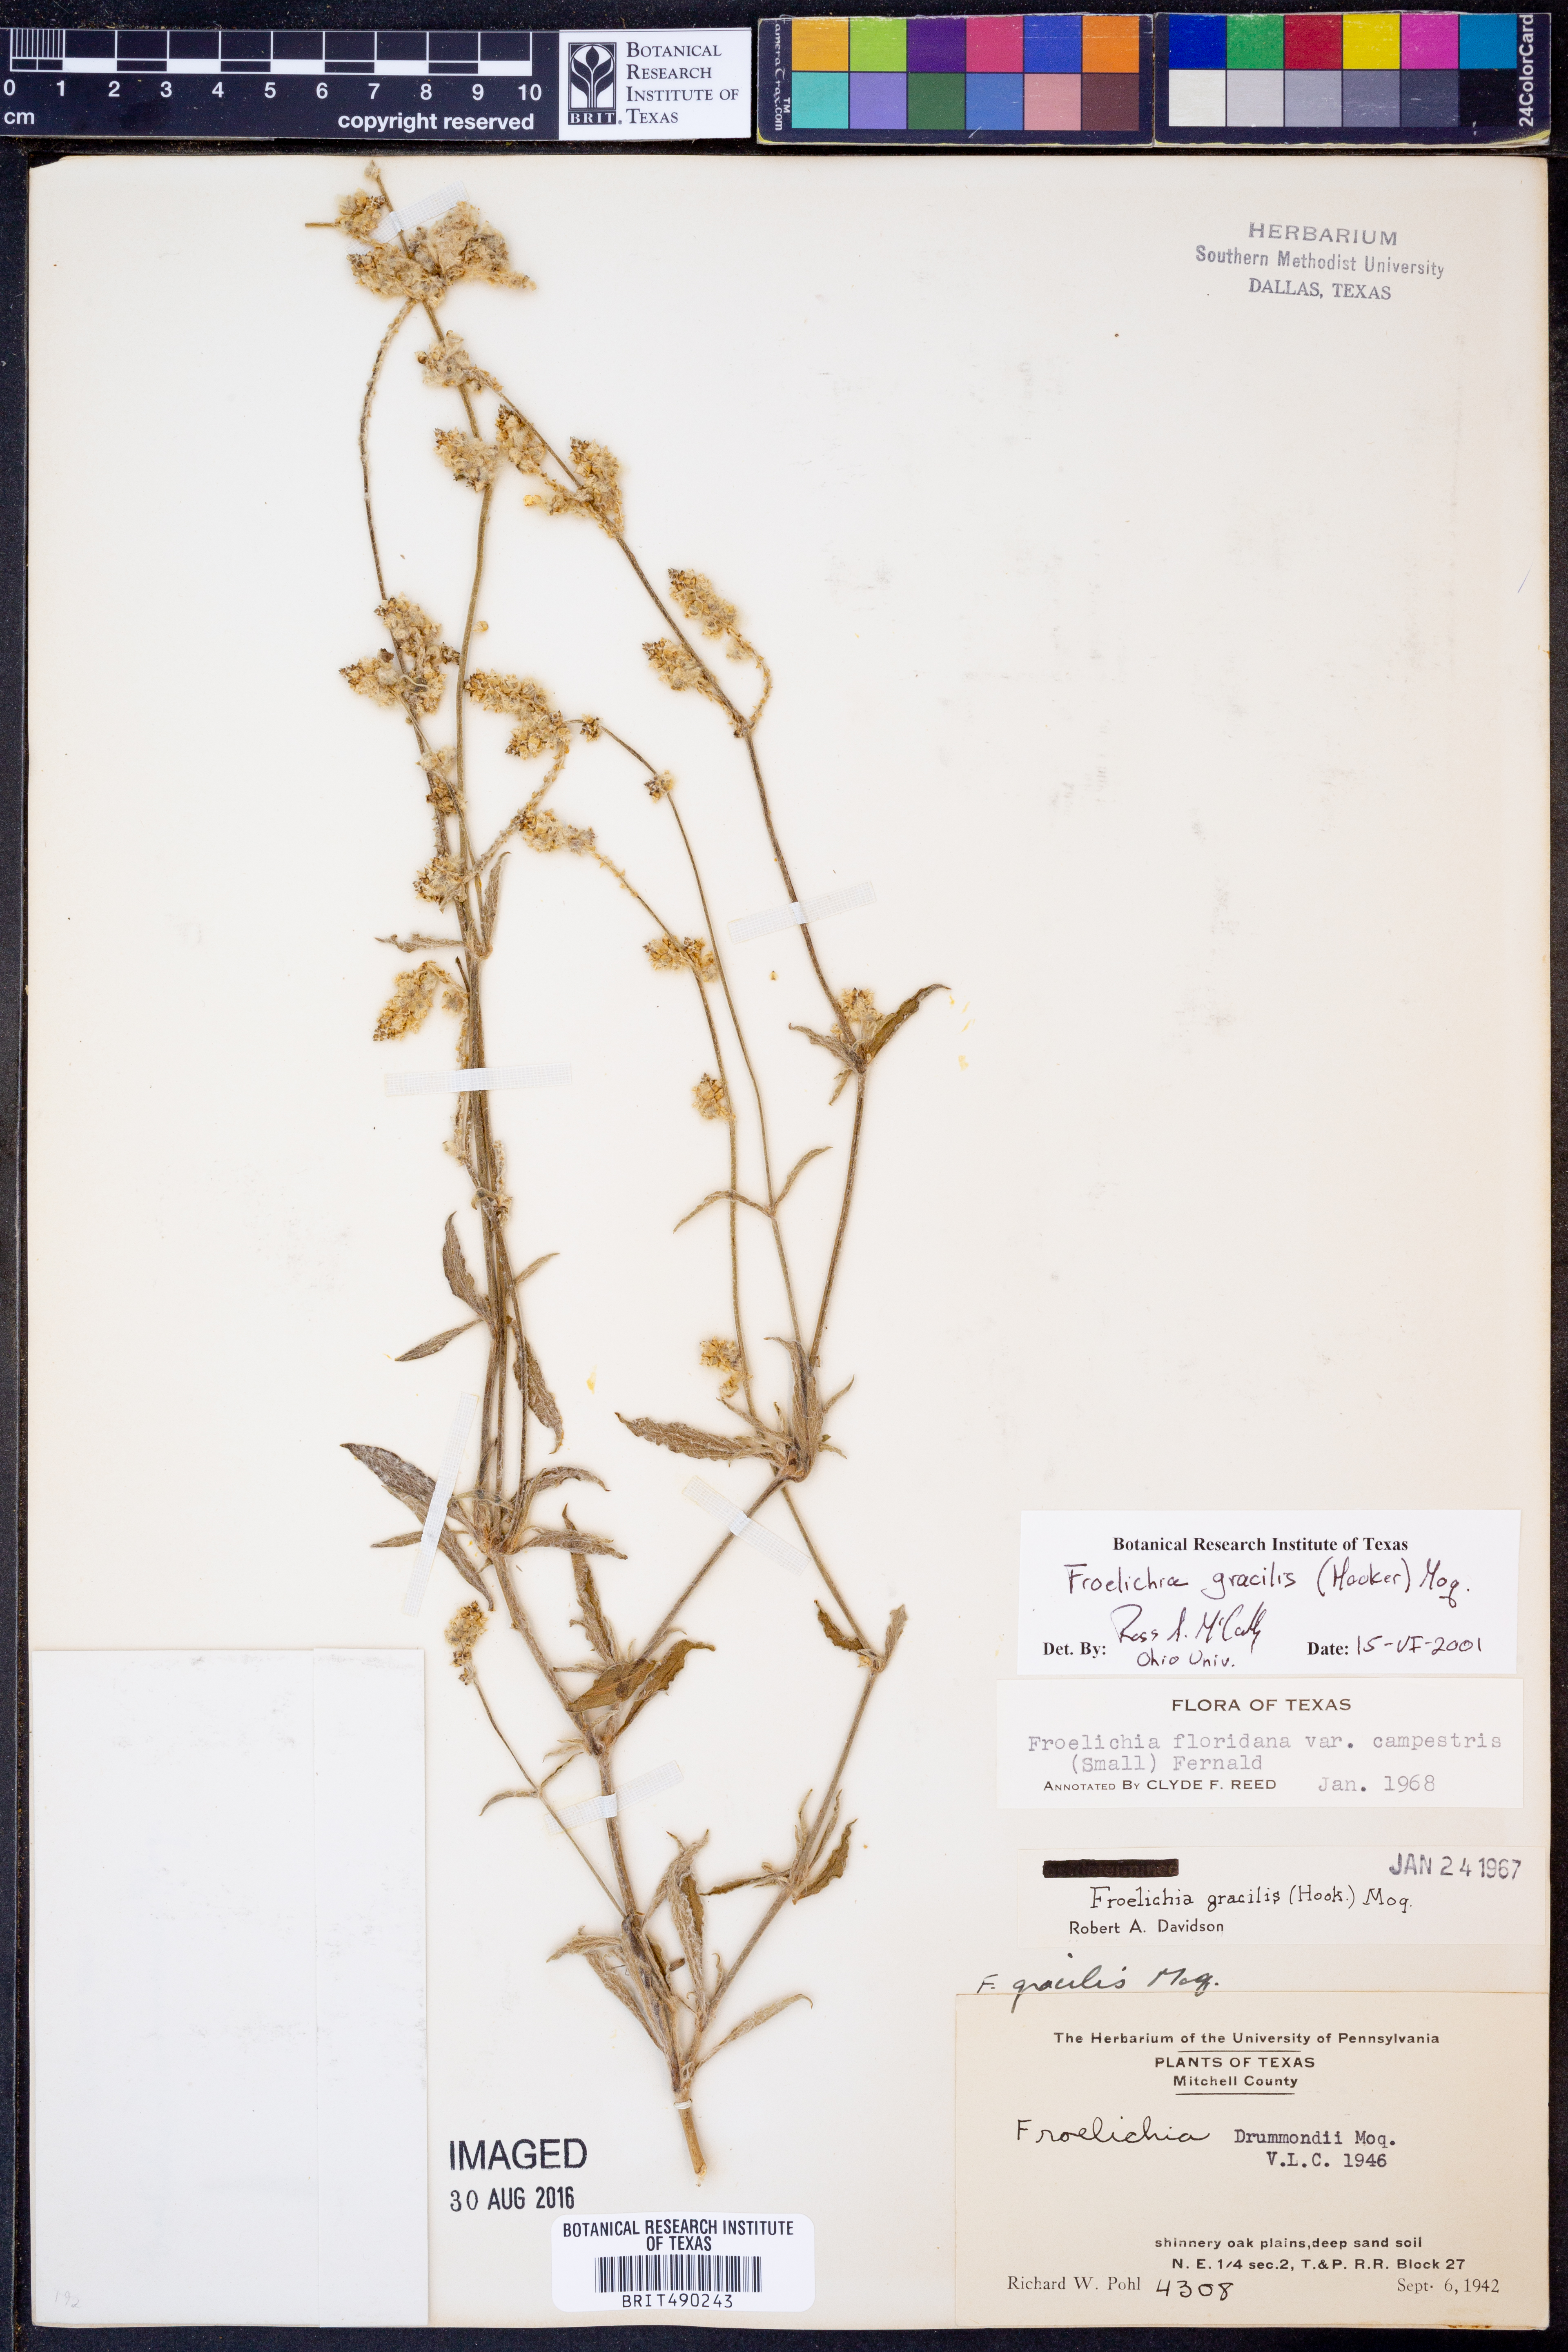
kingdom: Plantae
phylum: Tracheophyta
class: Magnoliopsida
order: Caryophyllales
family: Amaranthaceae
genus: Froelichia
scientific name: Froelichia gracilis
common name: Slender cottonweed
